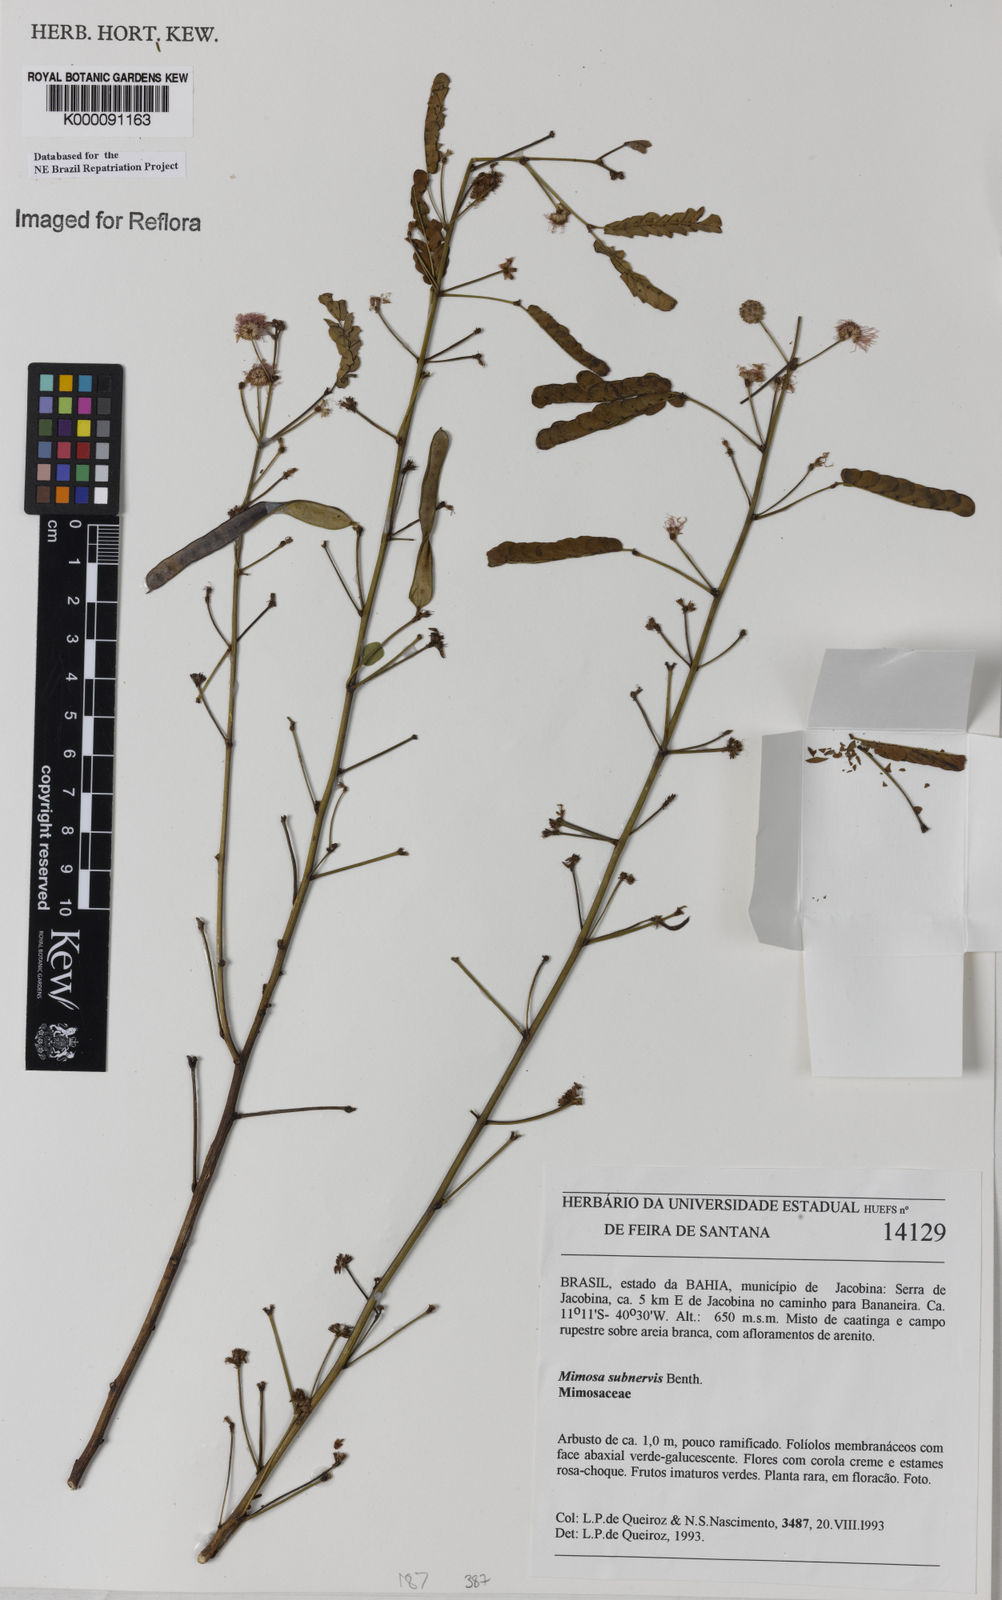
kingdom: Plantae
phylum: Tracheophyta
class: Magnoliopsida
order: Fabales
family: Fabaceae
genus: Mimosa
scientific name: Mimosa subenervis
